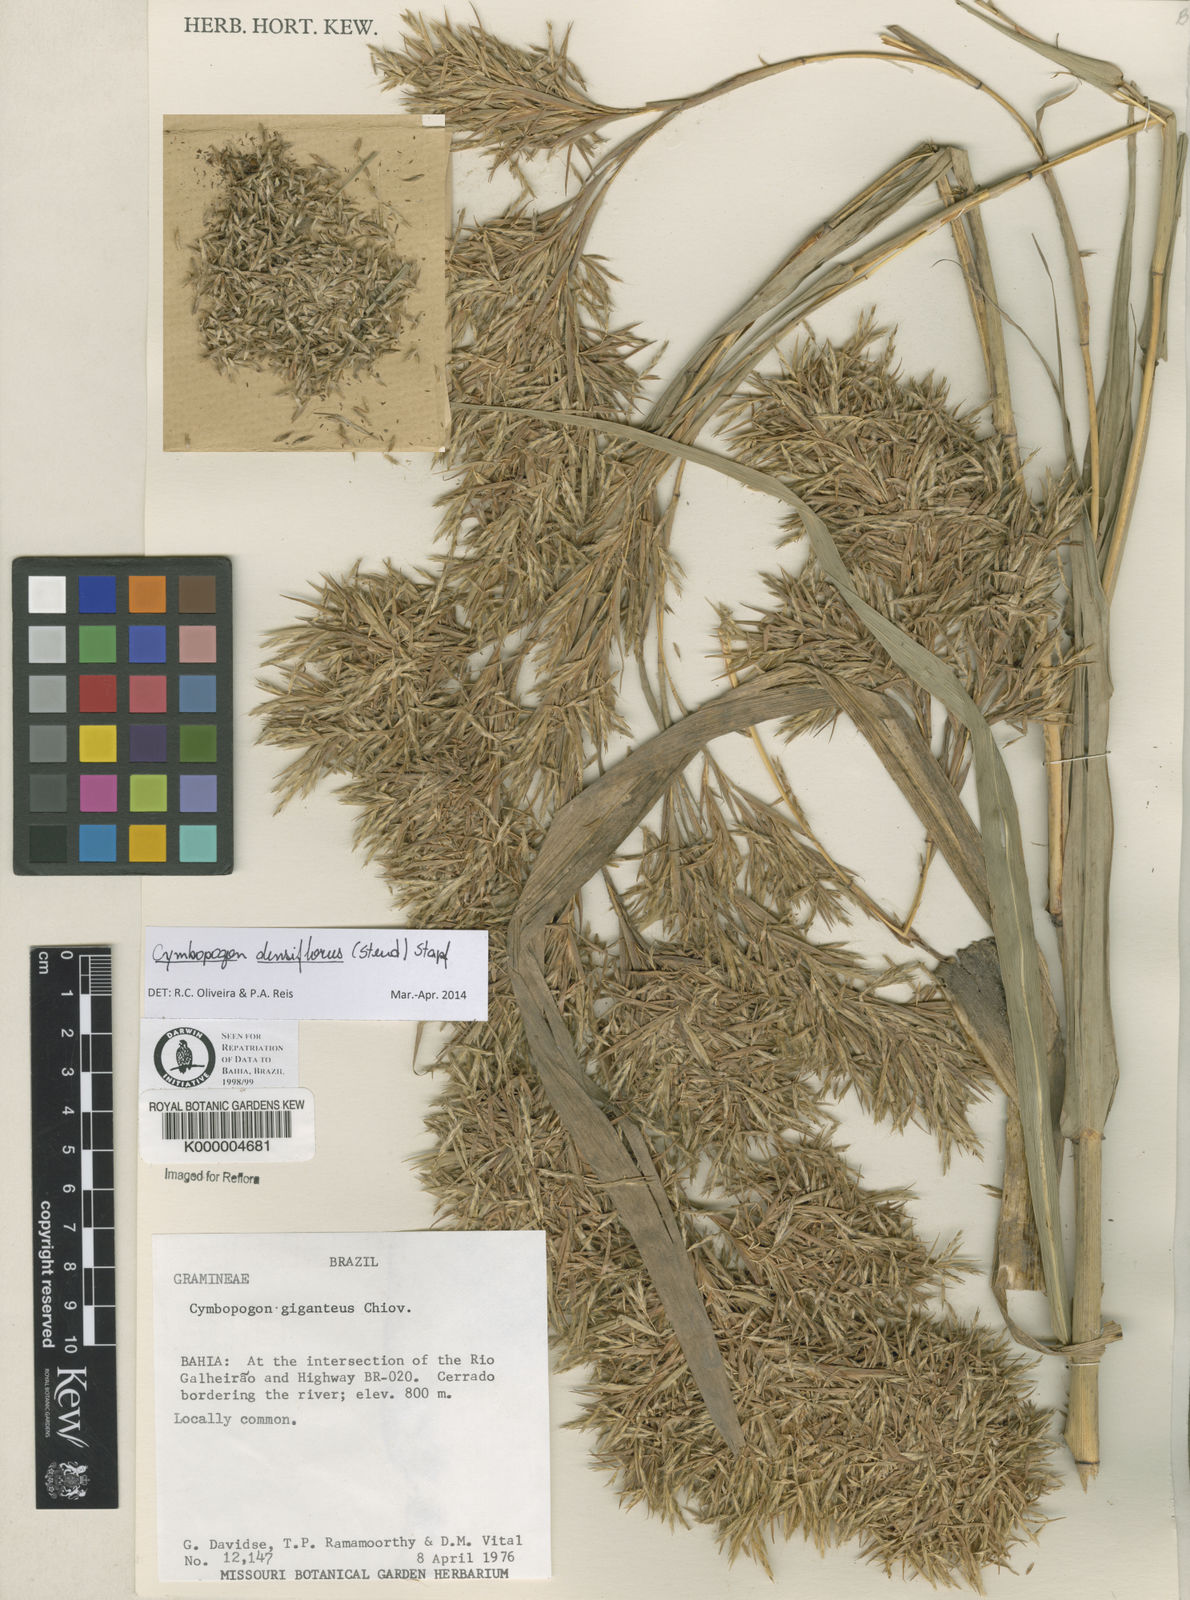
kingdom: Plantae
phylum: Tracheophyta
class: Liliopsida
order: Poales
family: Poaceae
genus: Cymbopogon
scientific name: Cymbopogon densiflorus
